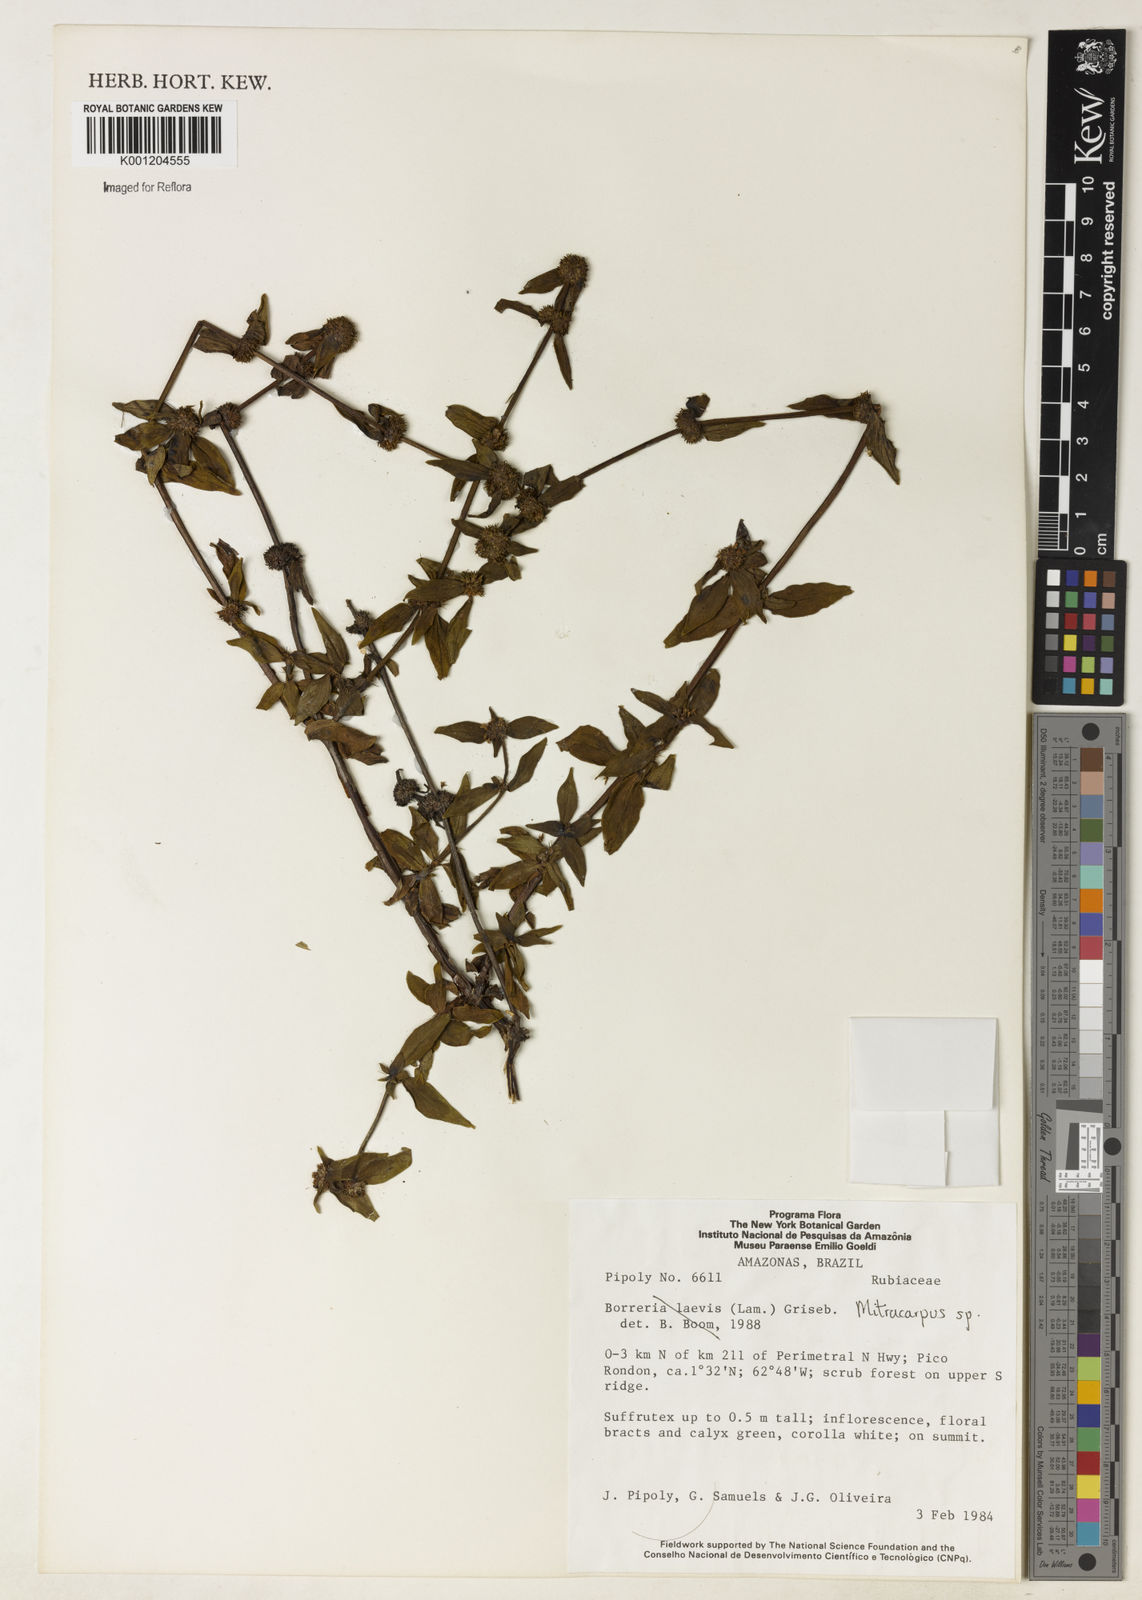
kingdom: Plantae
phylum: Tracheophyta
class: Magnoliopsida
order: Gentianales
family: Rubiaceae
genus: Mitracarpus
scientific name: Mitracarpus
